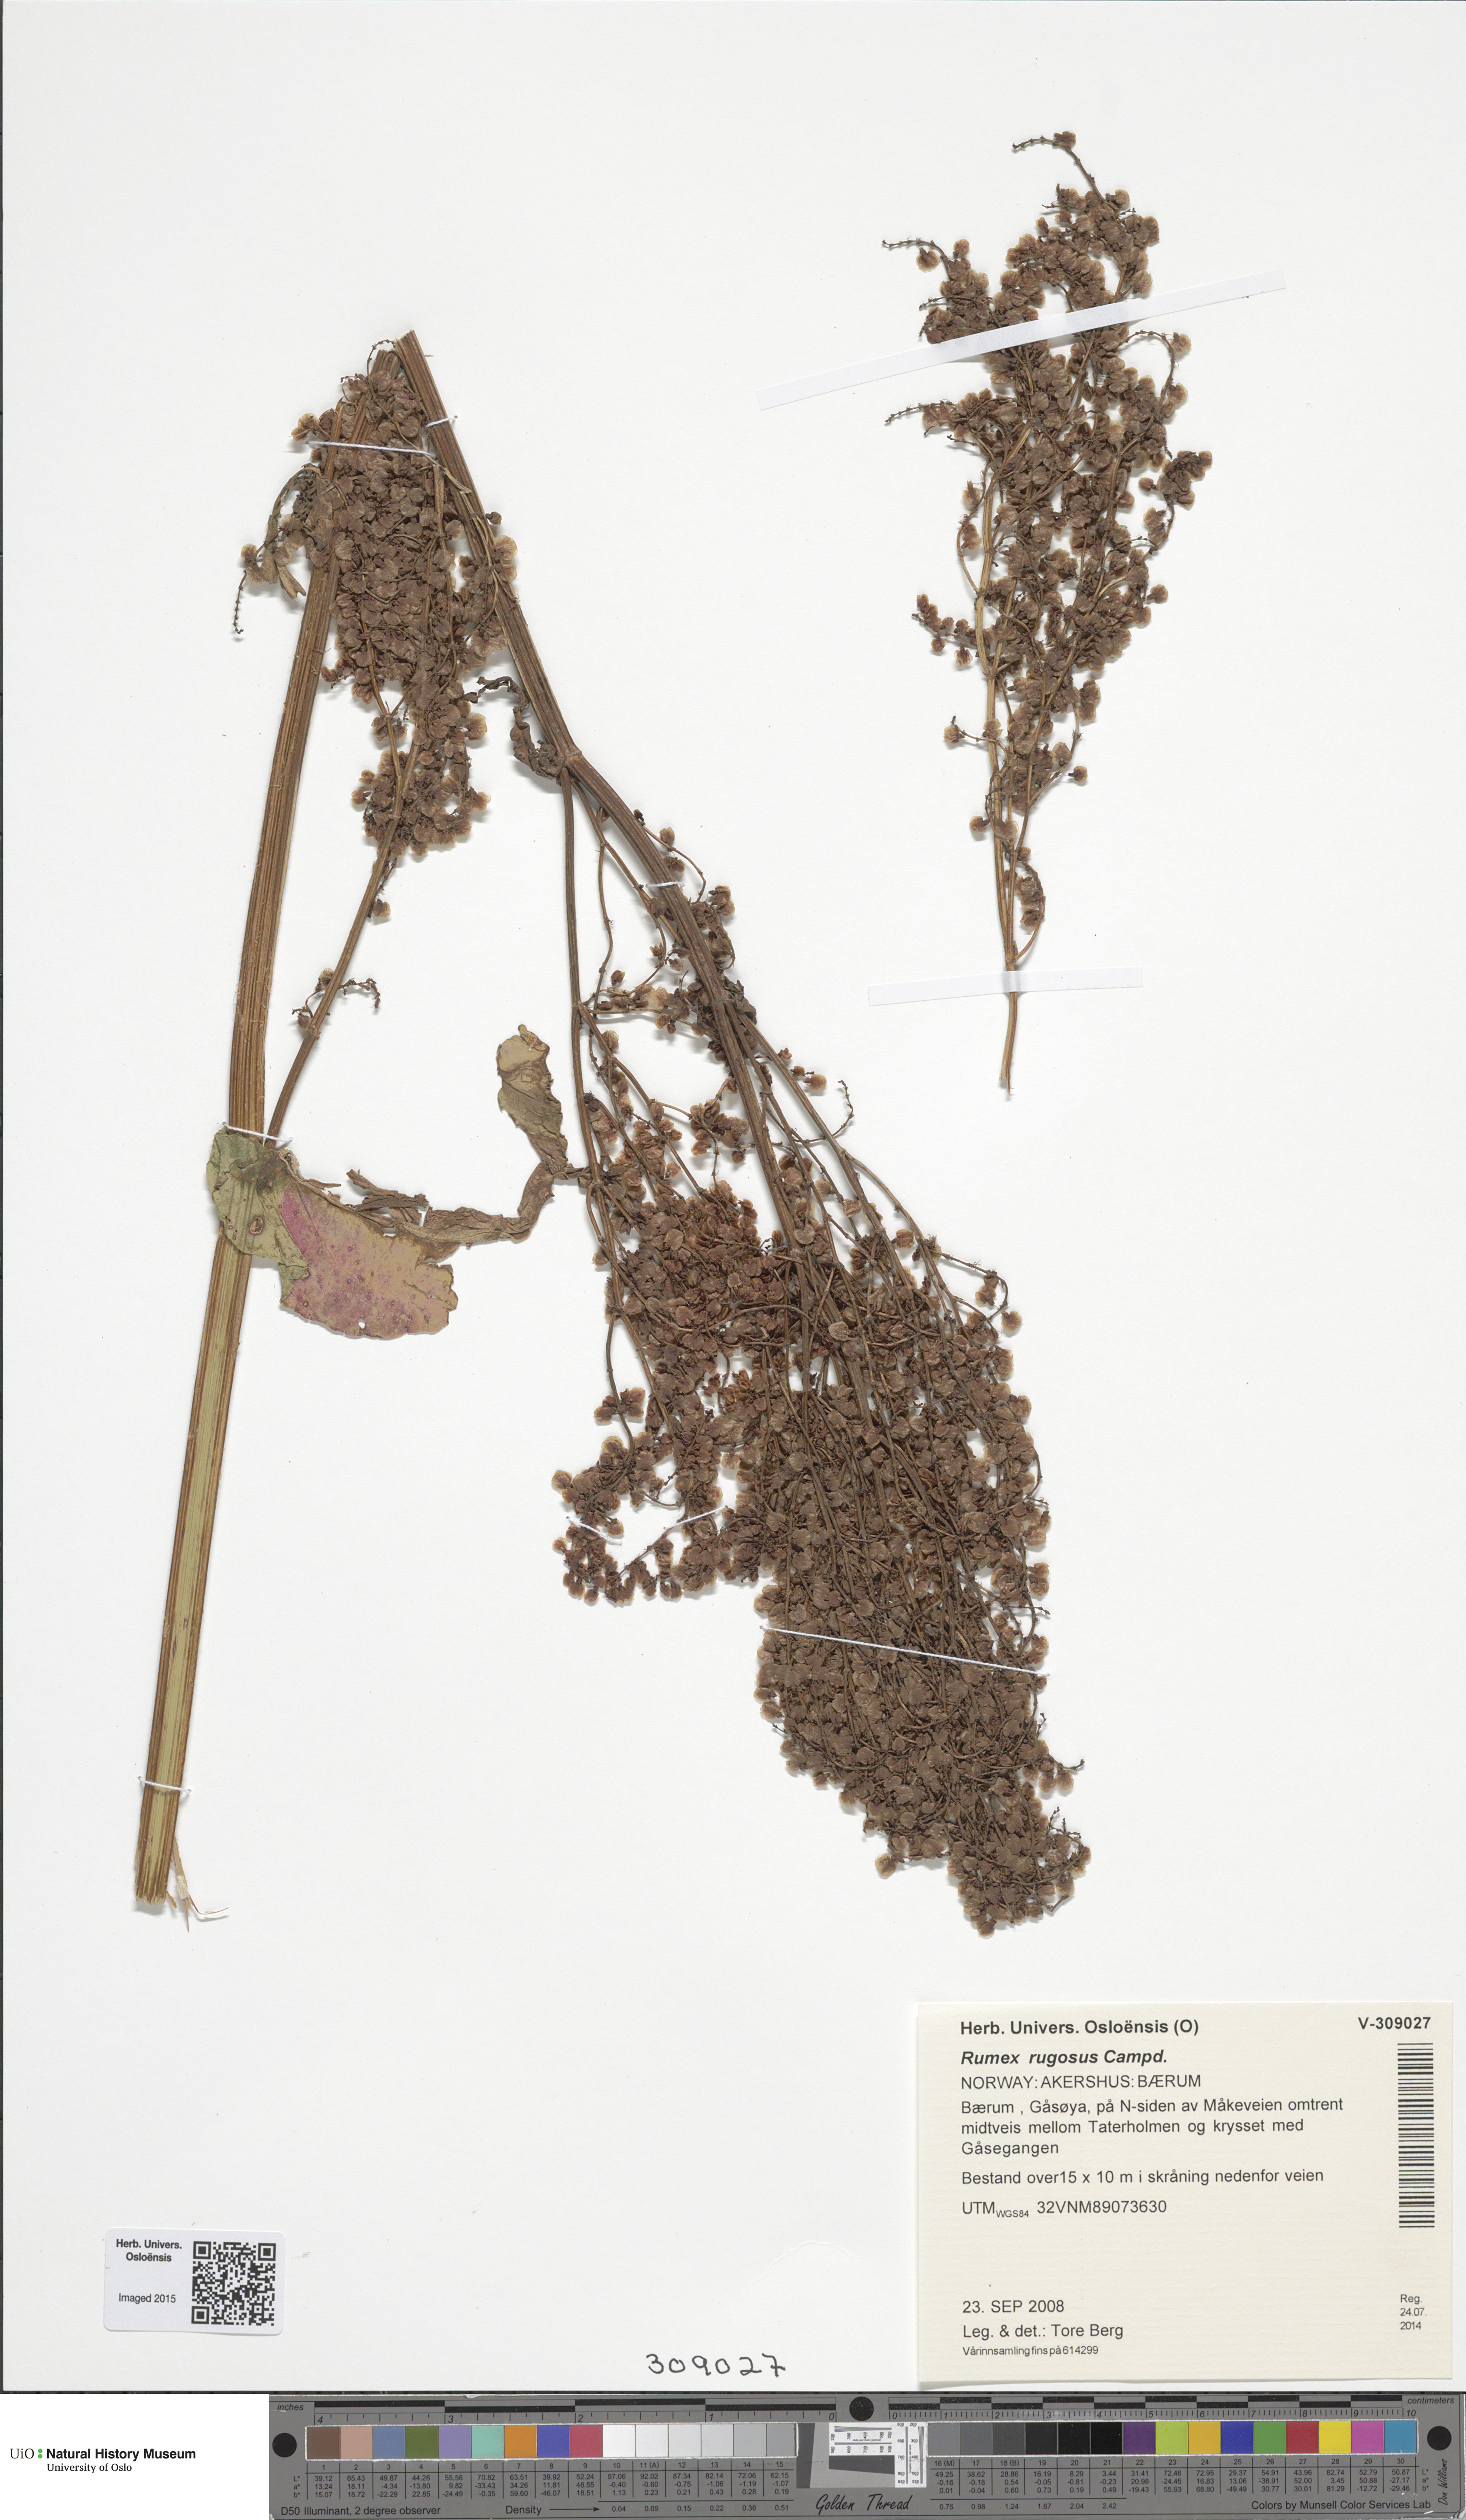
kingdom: Plantae
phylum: Tracheophyta
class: Magnoliopsida
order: Caryophyllales
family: Polygonaceae
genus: Rumex
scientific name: Rumex rugosus
